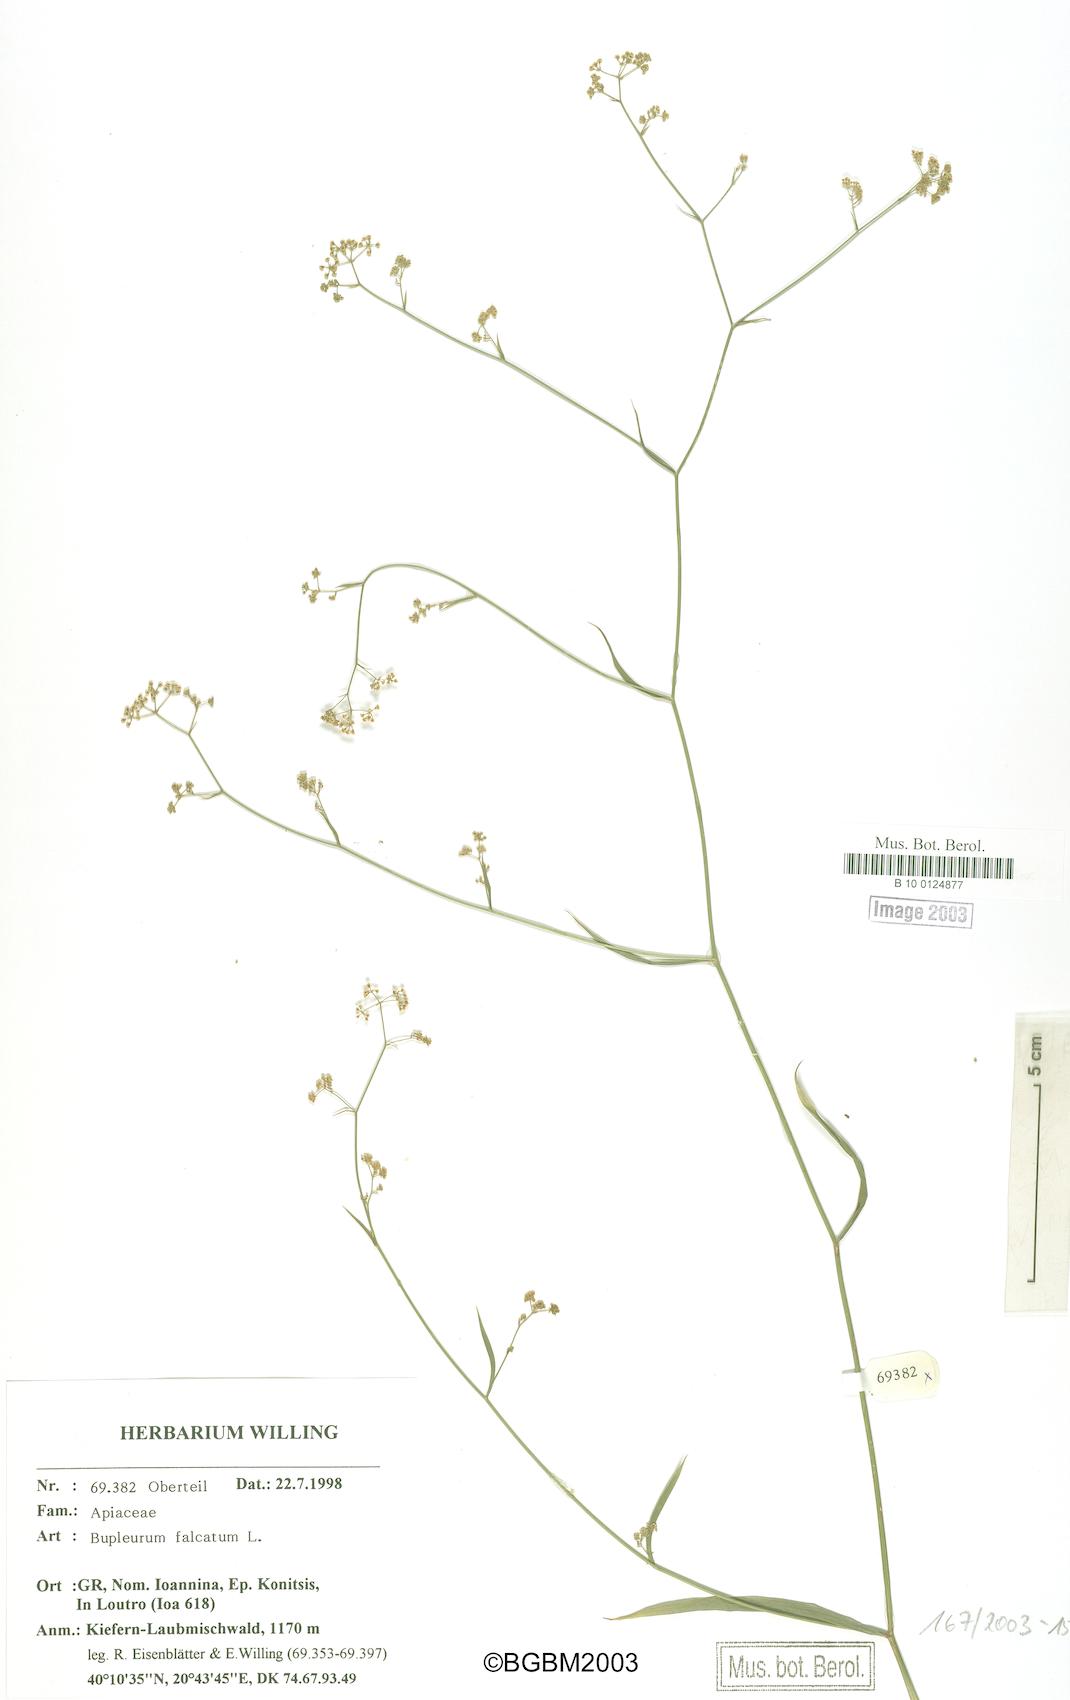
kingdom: Plantae
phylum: Tracheophyta
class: Magnoliopsida
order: Apiales
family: Apiaceae
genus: Bupleurum
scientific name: Bupleurum falcatum
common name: Sickle-leaved hare's-ear
